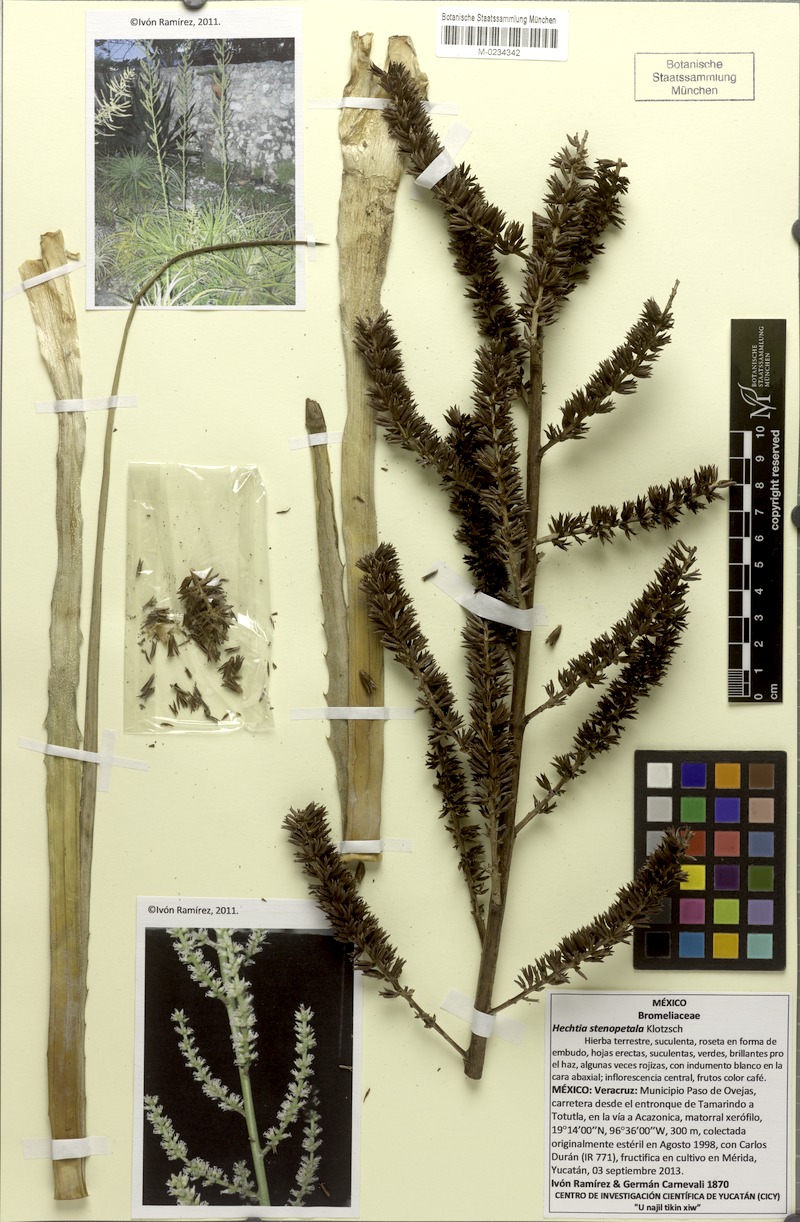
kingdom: Plantae
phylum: Tracheophyta
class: Liliopsida
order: Poales
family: Bromeliaceae
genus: Hechtia
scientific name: Hechtia stenopetala
